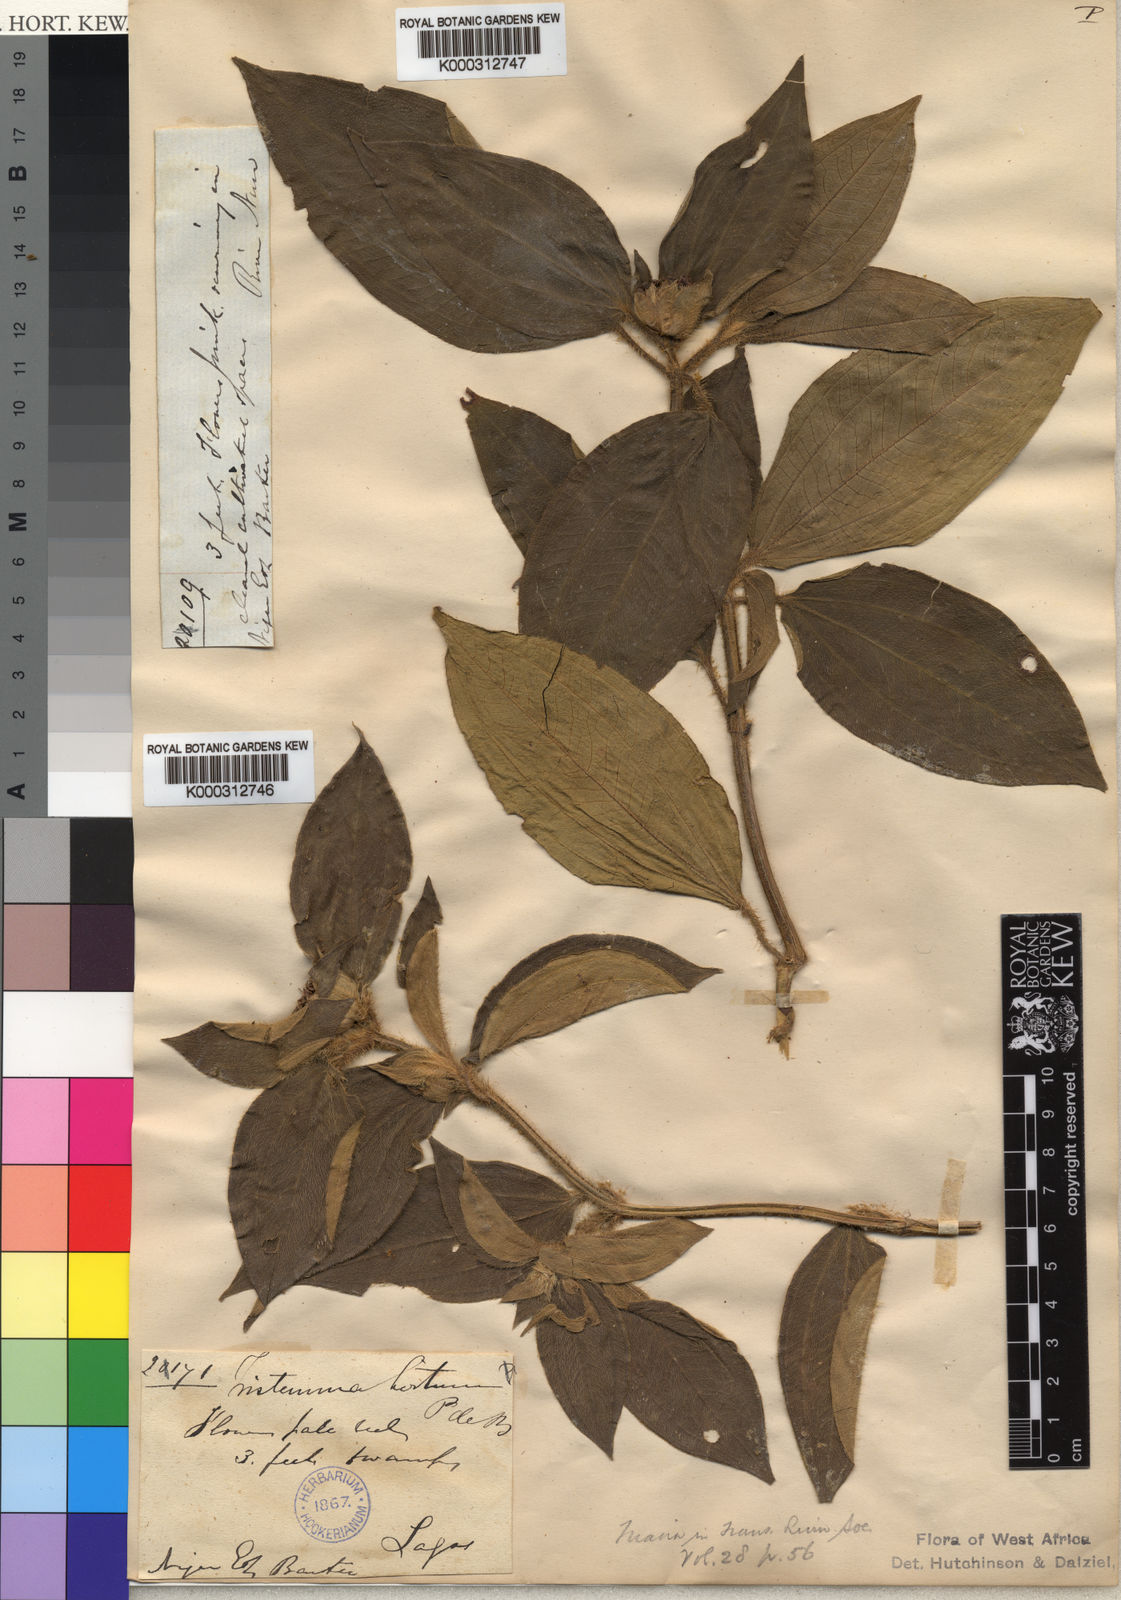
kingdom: Plantae
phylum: Tracheophyta
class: Magnoliopsida
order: Myrtales
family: Melastomataceae
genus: Tristemma
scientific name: Tristemma hirtum
